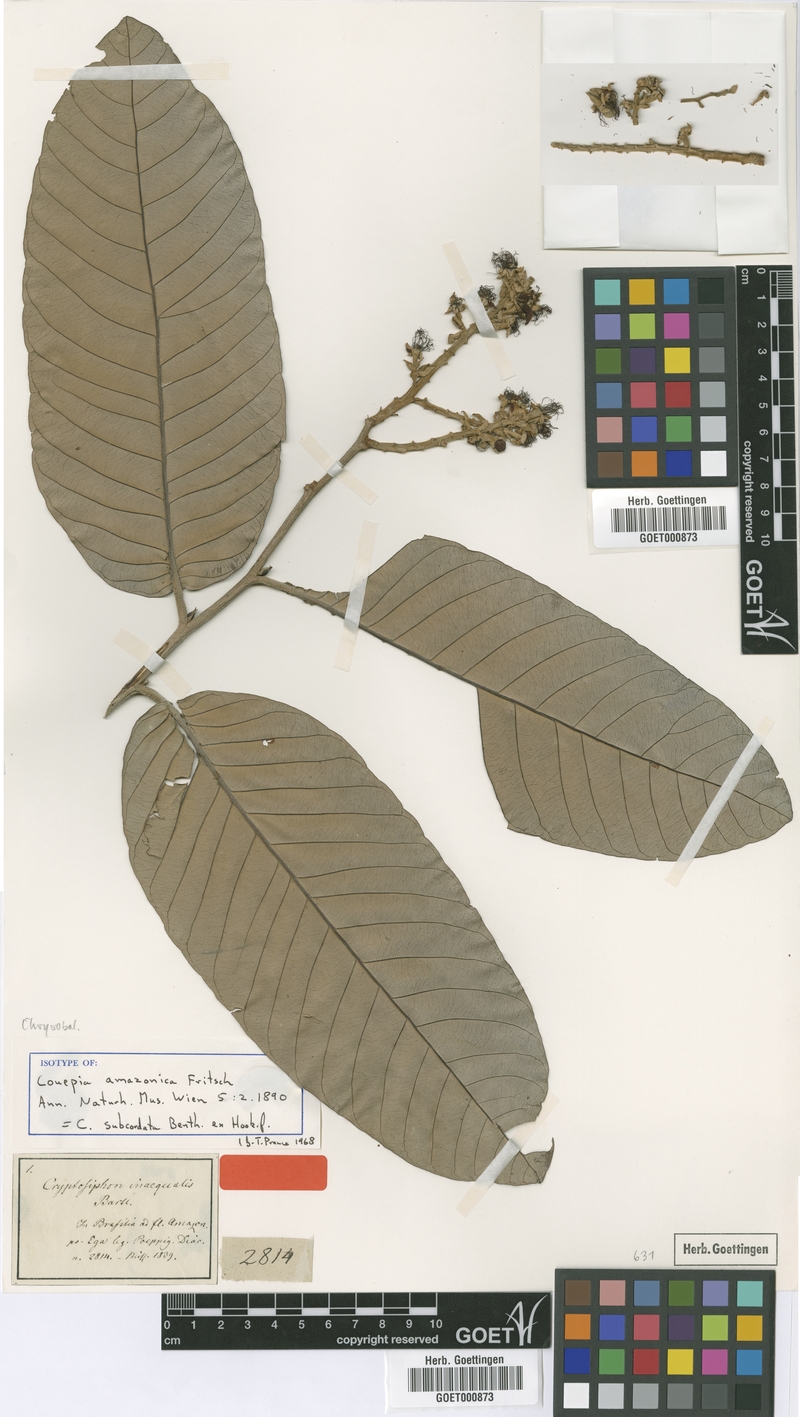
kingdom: Plantae
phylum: Tracheophyta
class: Magnoliopsida
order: Malpighiales
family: Chrysobalanaceae
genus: Couepia
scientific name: Couepia subcordata
